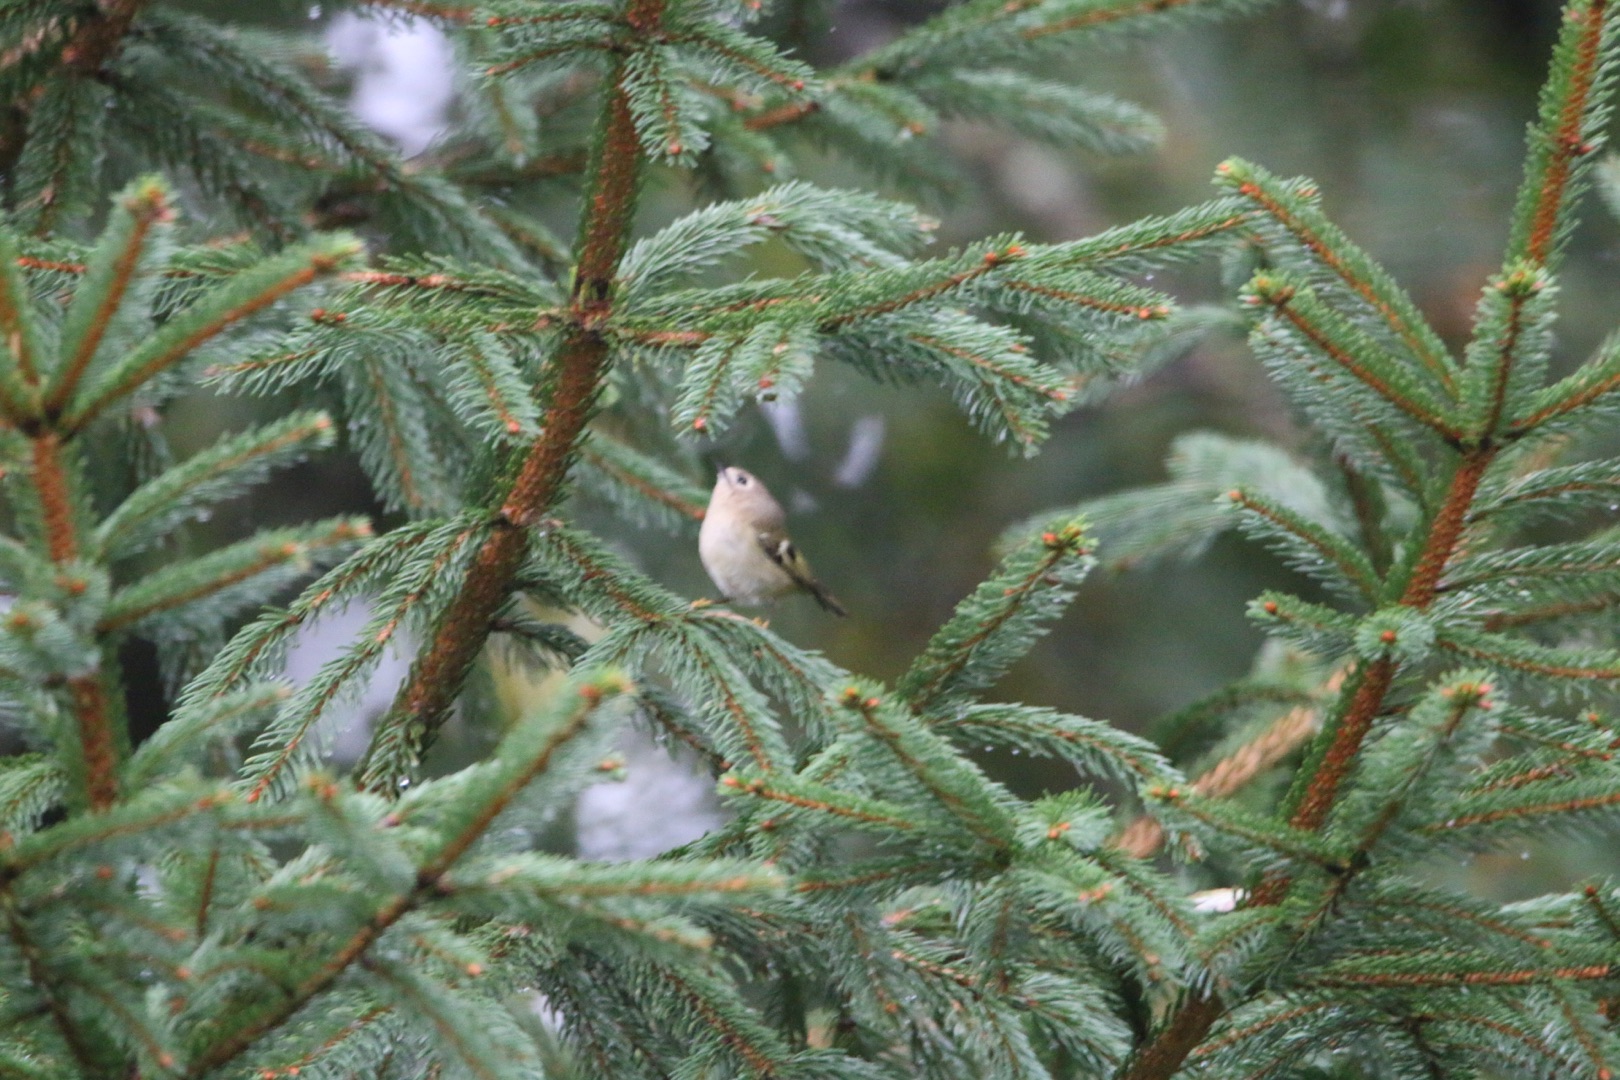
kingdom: Animalia
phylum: Chordata
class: Aves
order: Passeriformes
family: Regulidae
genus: Regulus
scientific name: Regulus regulus
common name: Fuglekonge
